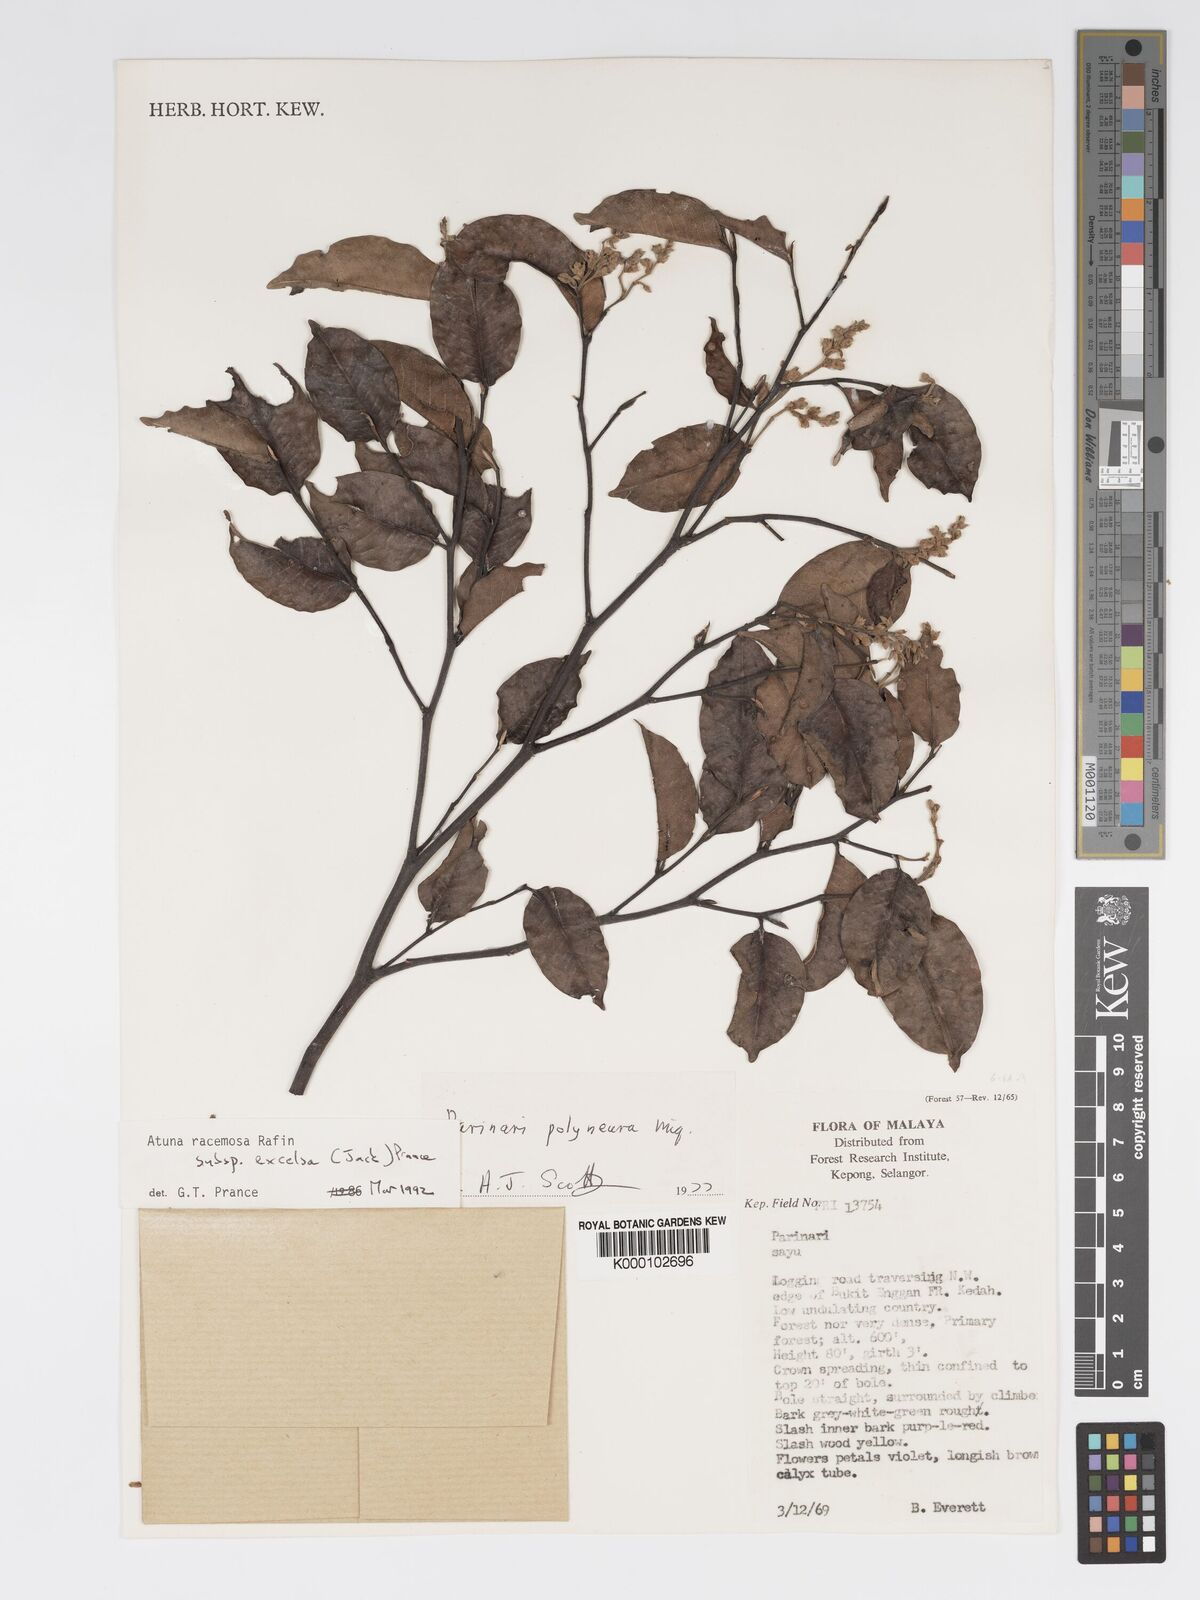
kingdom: Plantae
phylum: Tracheophyta
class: Magnoliopsida
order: Malpighiales
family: Chrysobalanaceae
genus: Atuna
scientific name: Atuna excelsa
